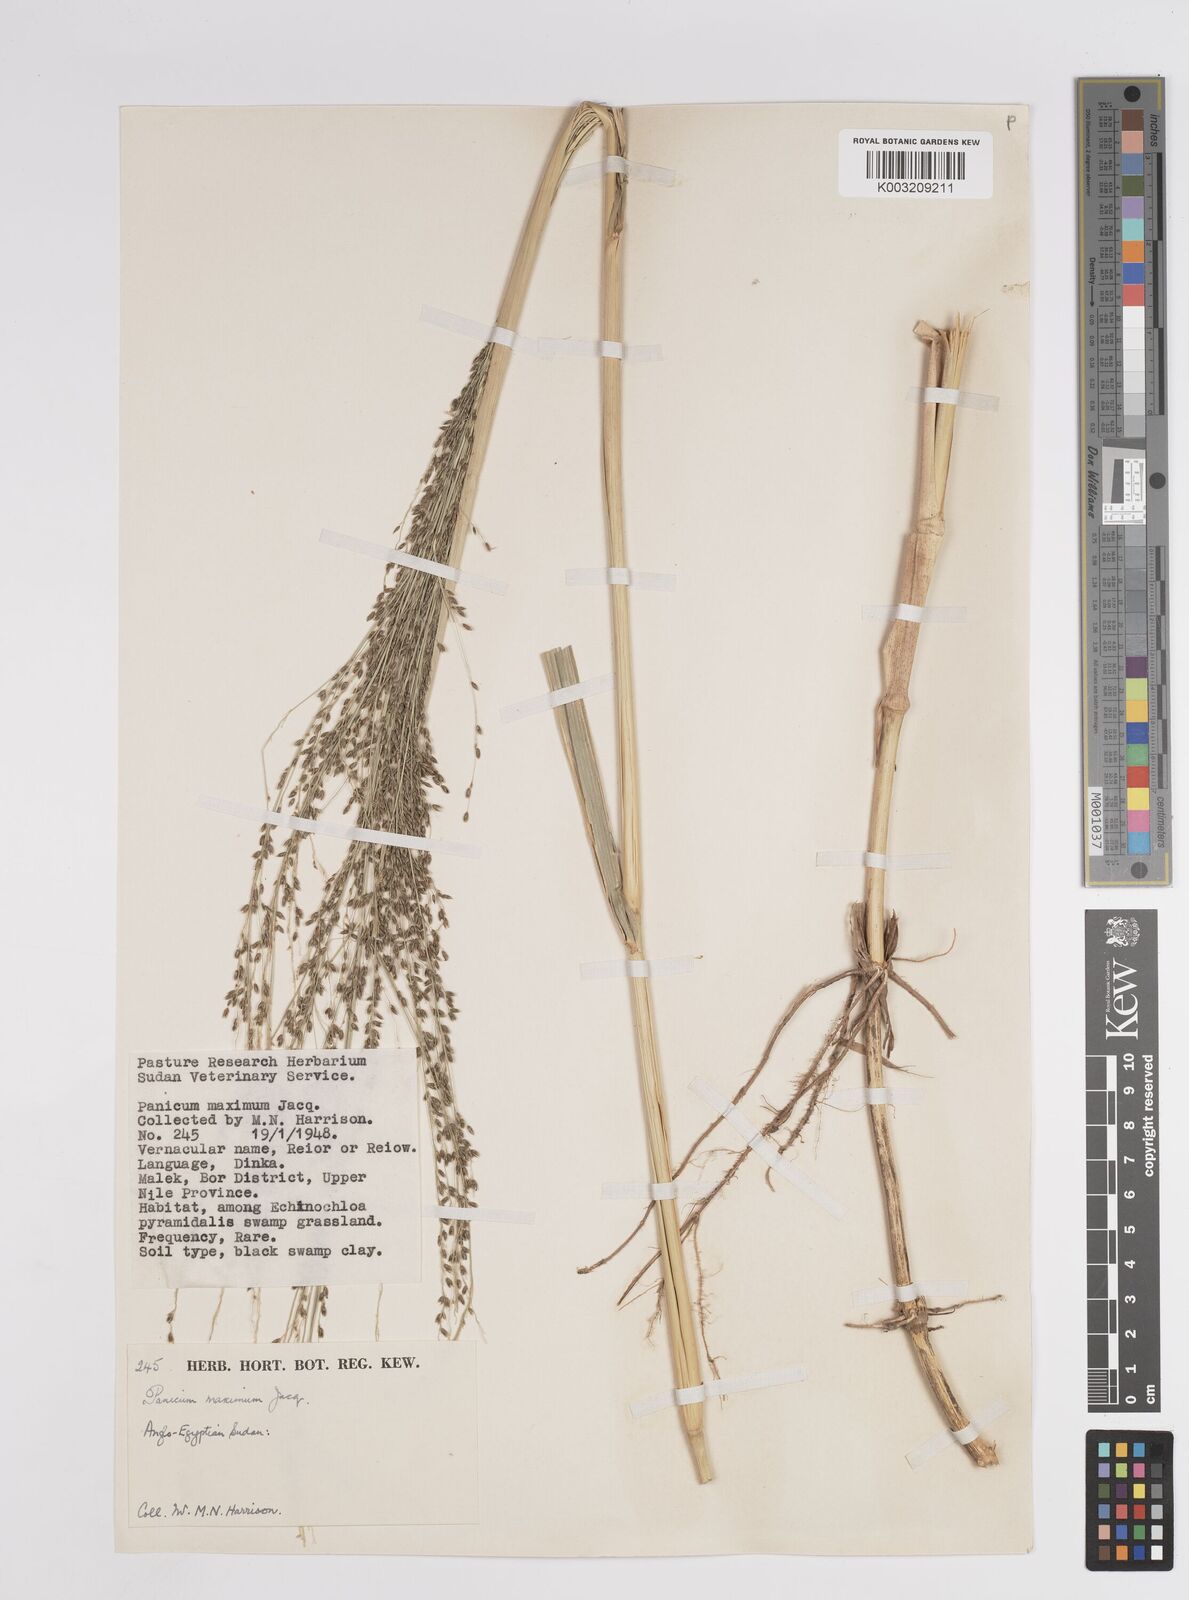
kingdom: Plantae
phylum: Tracheophyta
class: Liliopsida
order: Poales
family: Poaceae
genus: Megathyrsus
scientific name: Megathyrsus maximus
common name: Guineagrass
